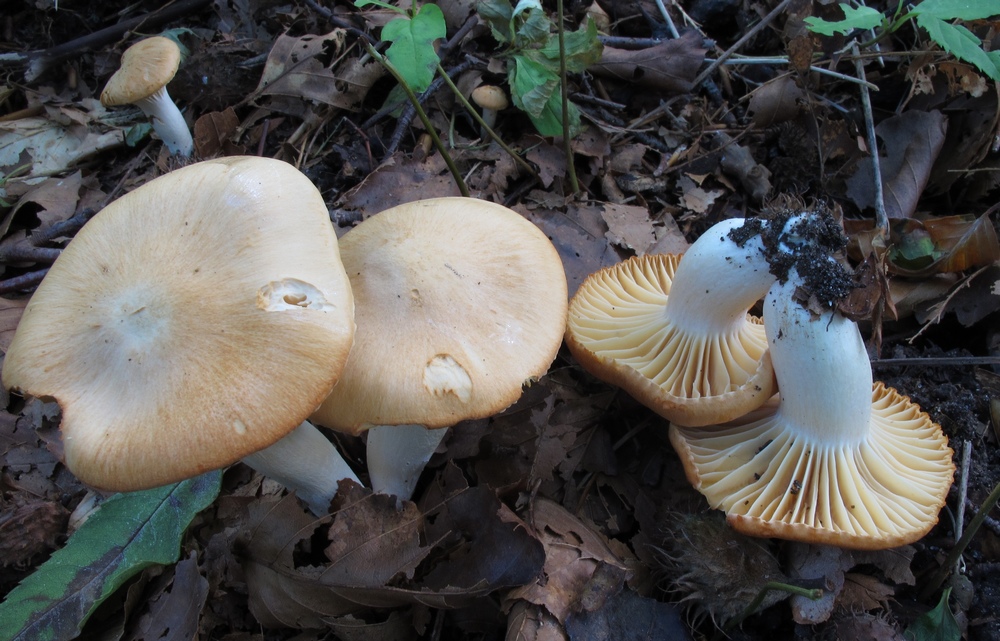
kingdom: Fungi
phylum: Basidiomycota
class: Agaricomycetes
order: Agaricales
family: Hygrophoraceae
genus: Cuphophyllus
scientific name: Cuphophyllus pratensis
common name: eng-vokshat
